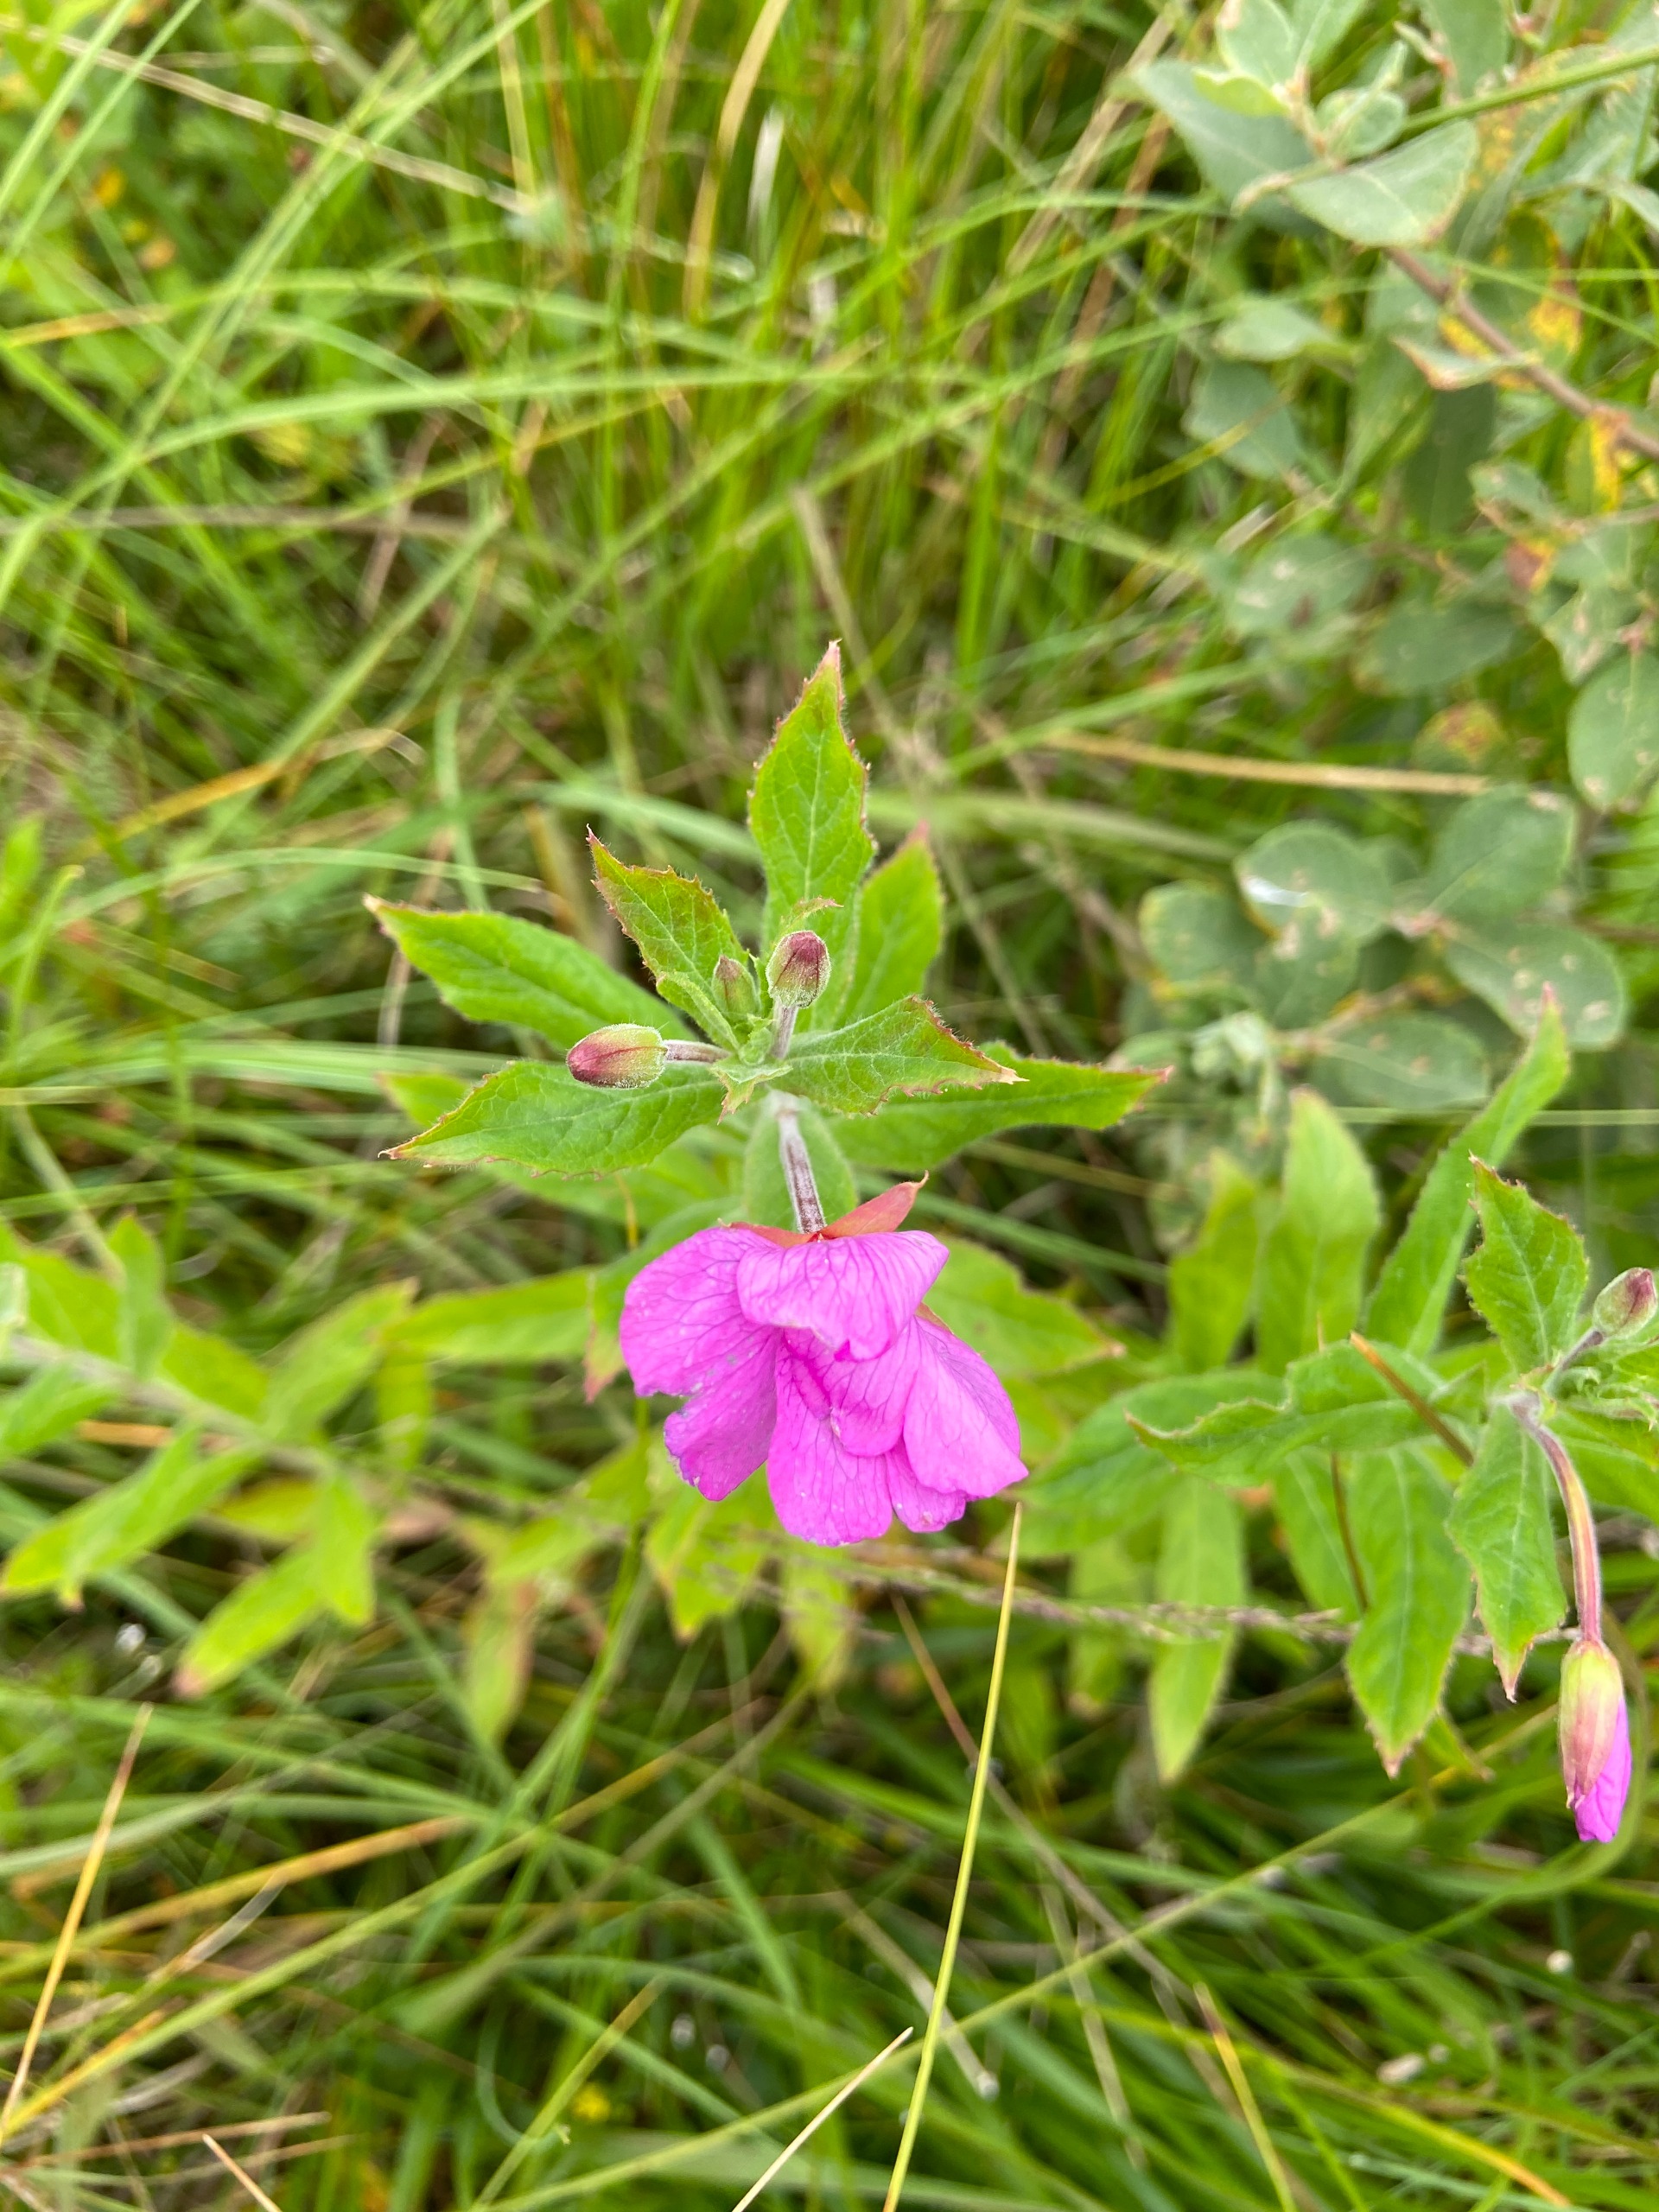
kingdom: Plantae
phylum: Tracheophyta
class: Magnoliopsida
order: Myrtales
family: Onagraceae
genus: Epilobium
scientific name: Epilobium hirsutum
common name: Lådden dueurt
